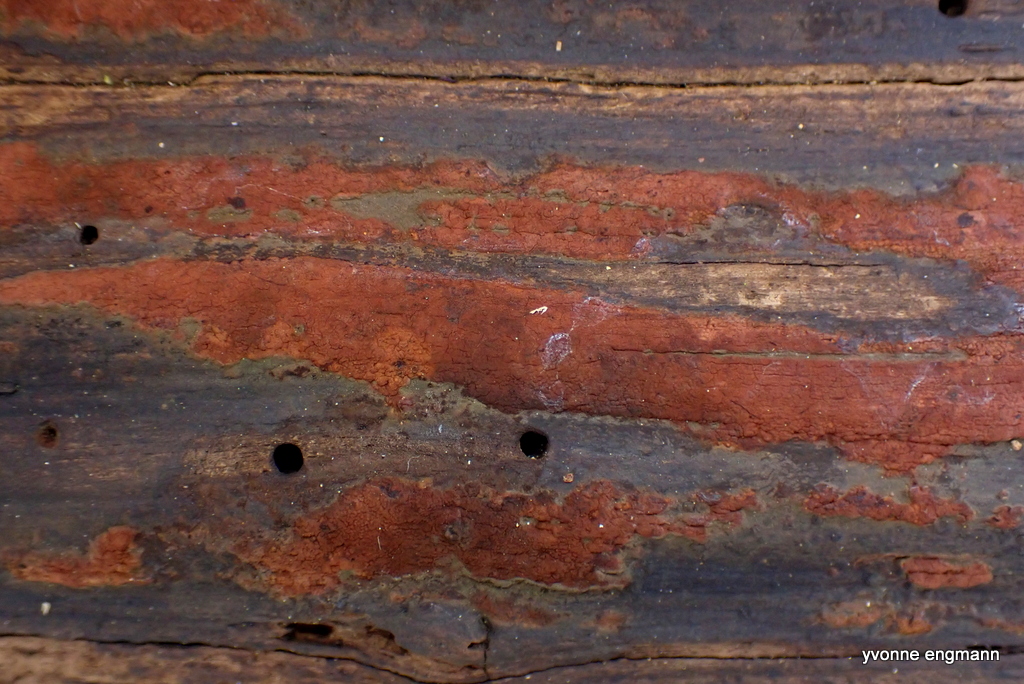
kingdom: Fungi
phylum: Ascomycota
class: Sordariomycetes
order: Xylariales
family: Hypoxylaceae
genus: Hypoxylon
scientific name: Hypoxylon macrocarpum
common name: skorpe-kulbær
